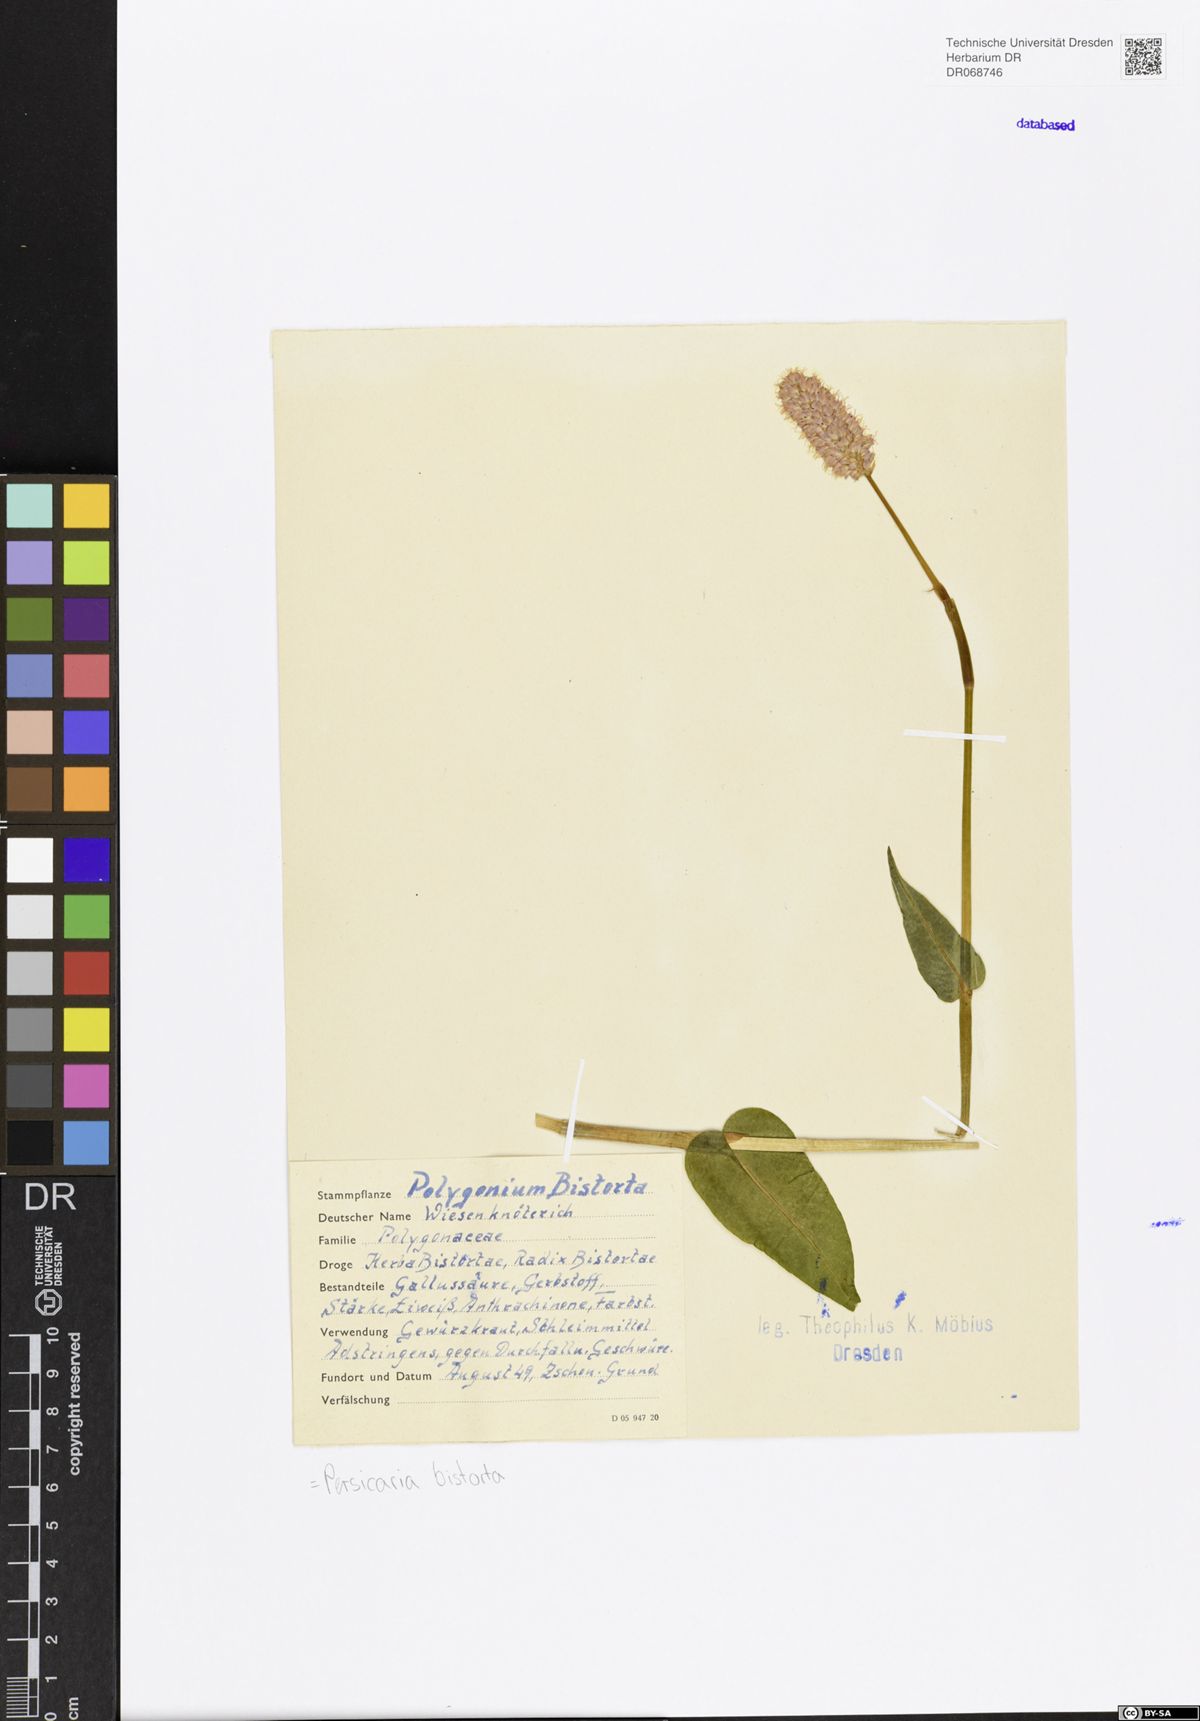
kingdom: Plantae
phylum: Tracheophyta
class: Magnoliopsida
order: Caryophyllales
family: Polygonaceae
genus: Bistorta
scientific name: Bistorta officinalis
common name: Common bistort
